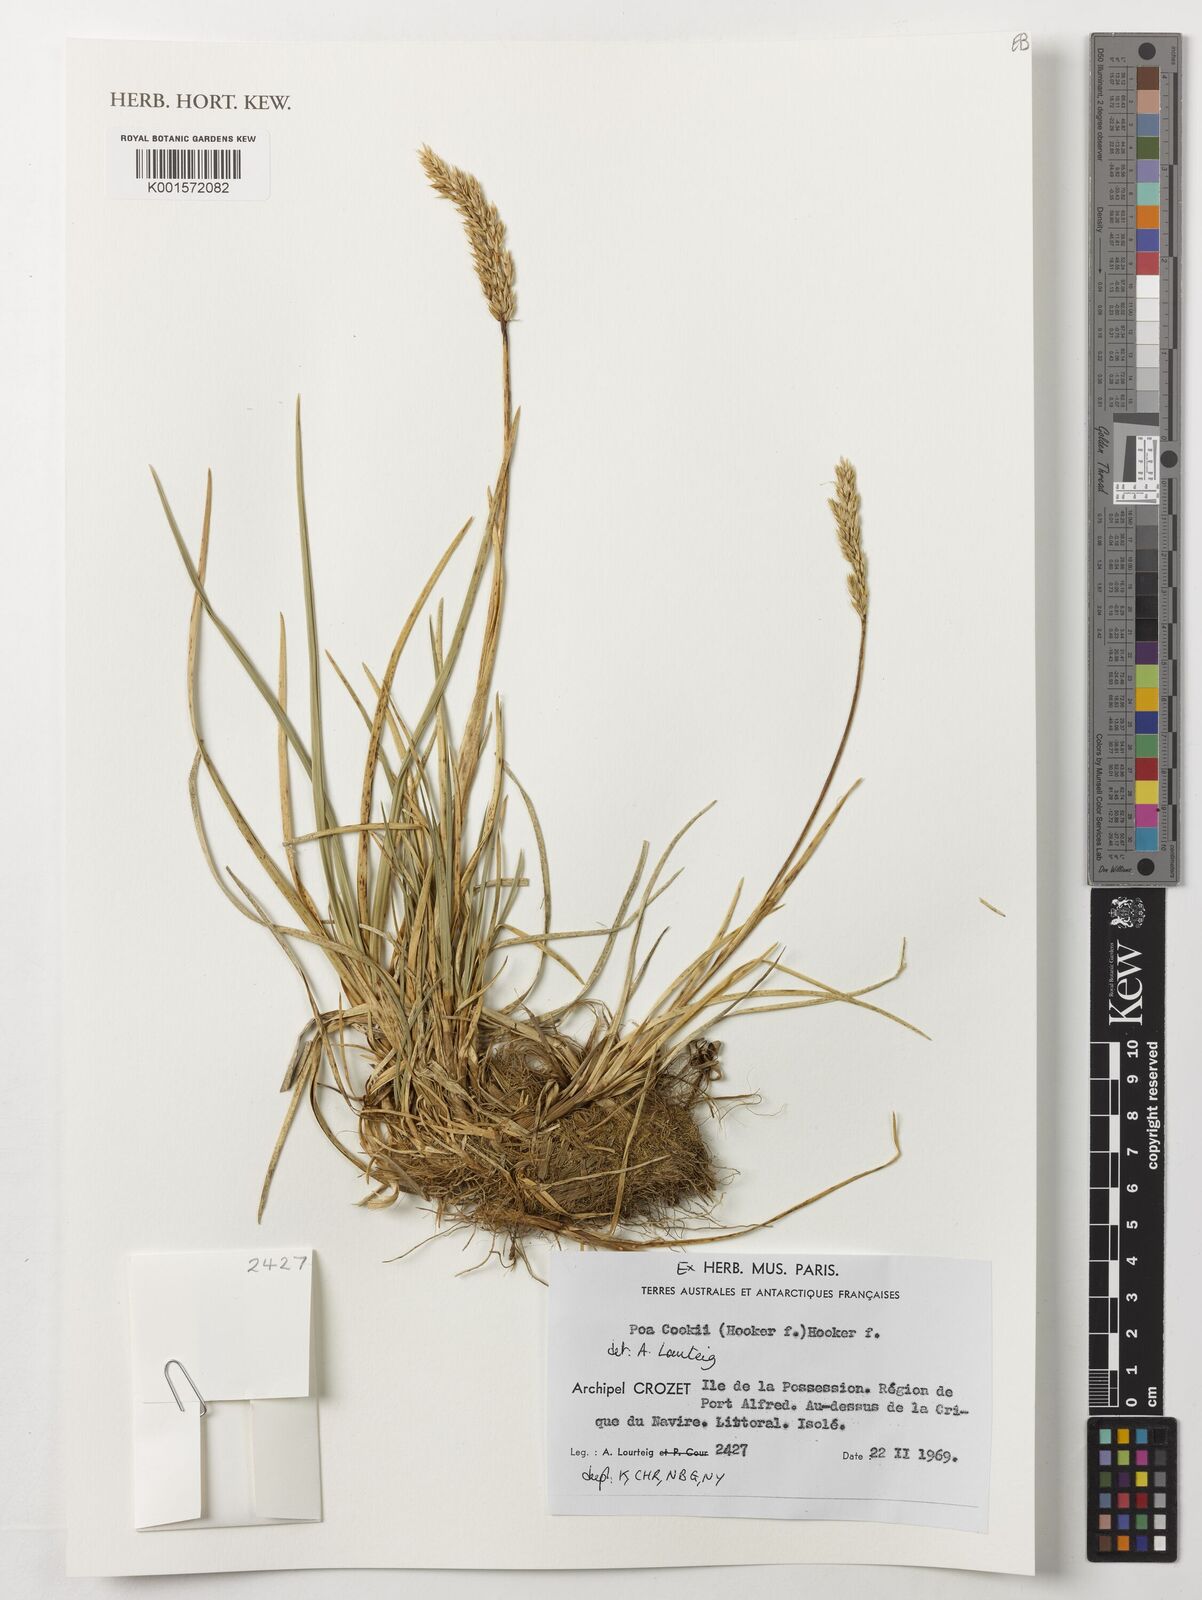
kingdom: Plantae
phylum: Tracheophyta
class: Liliopsida
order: Poales
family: Poaceae
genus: Poa
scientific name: Poa cookii
